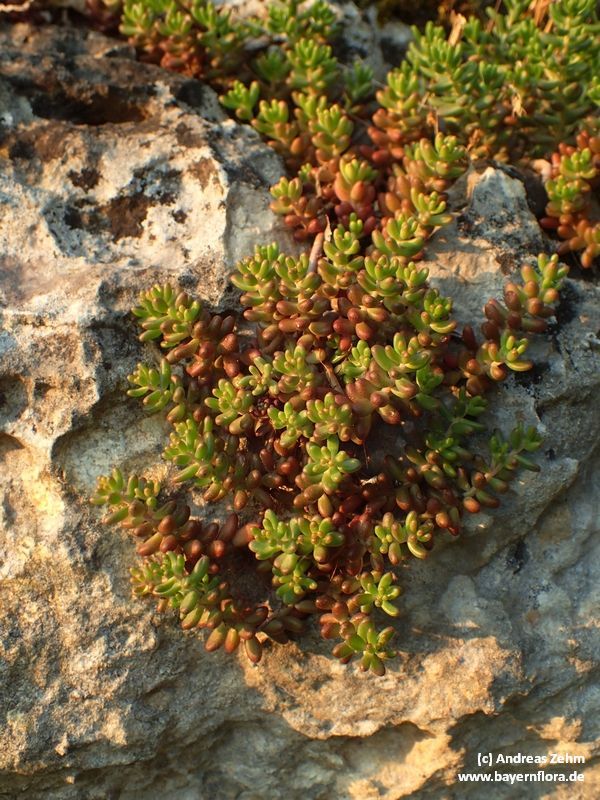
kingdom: Plantae
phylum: Tracheophyta
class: Magnoliopsida
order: Saxifragales
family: Crassulaceae
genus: Sedum
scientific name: Sedum album
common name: White stonecrop
